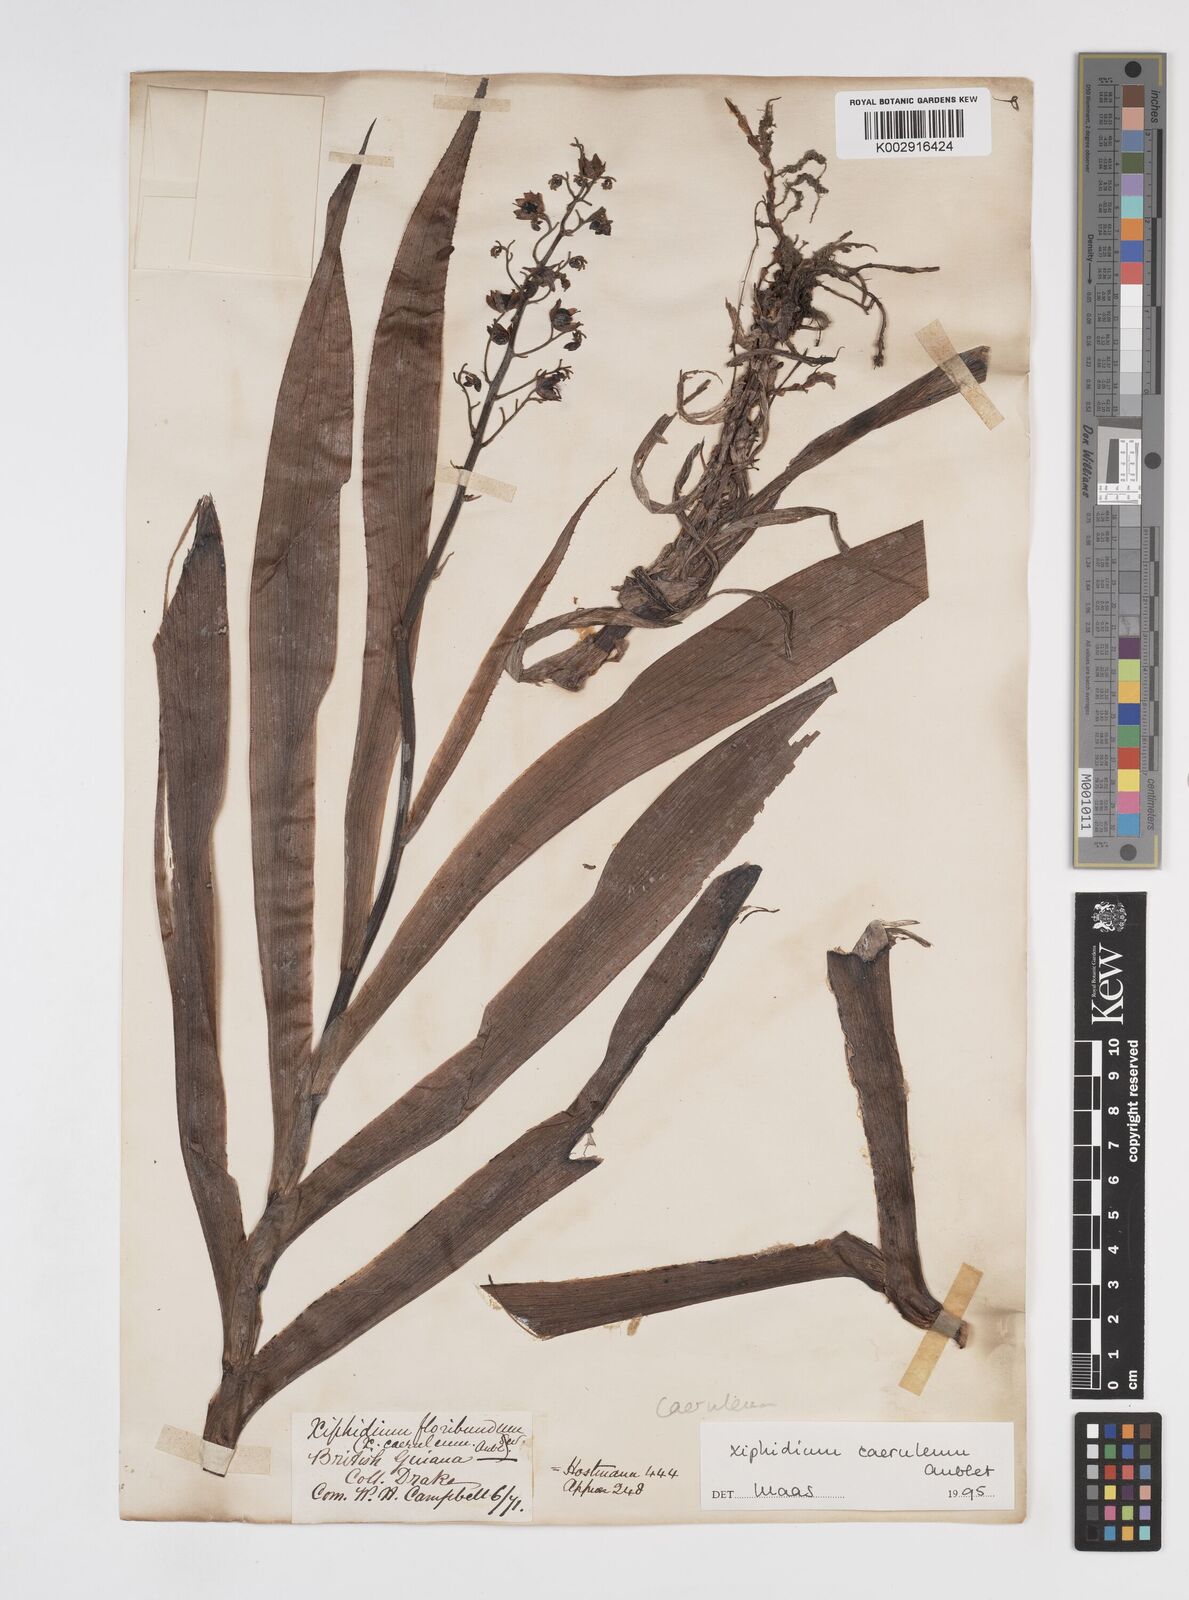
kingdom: Plantae
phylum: Tracheophyta
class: Liliopsida
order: Commelinales
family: Haemodoraceae
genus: Xiphidium
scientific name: Xiphidium caeruleum
